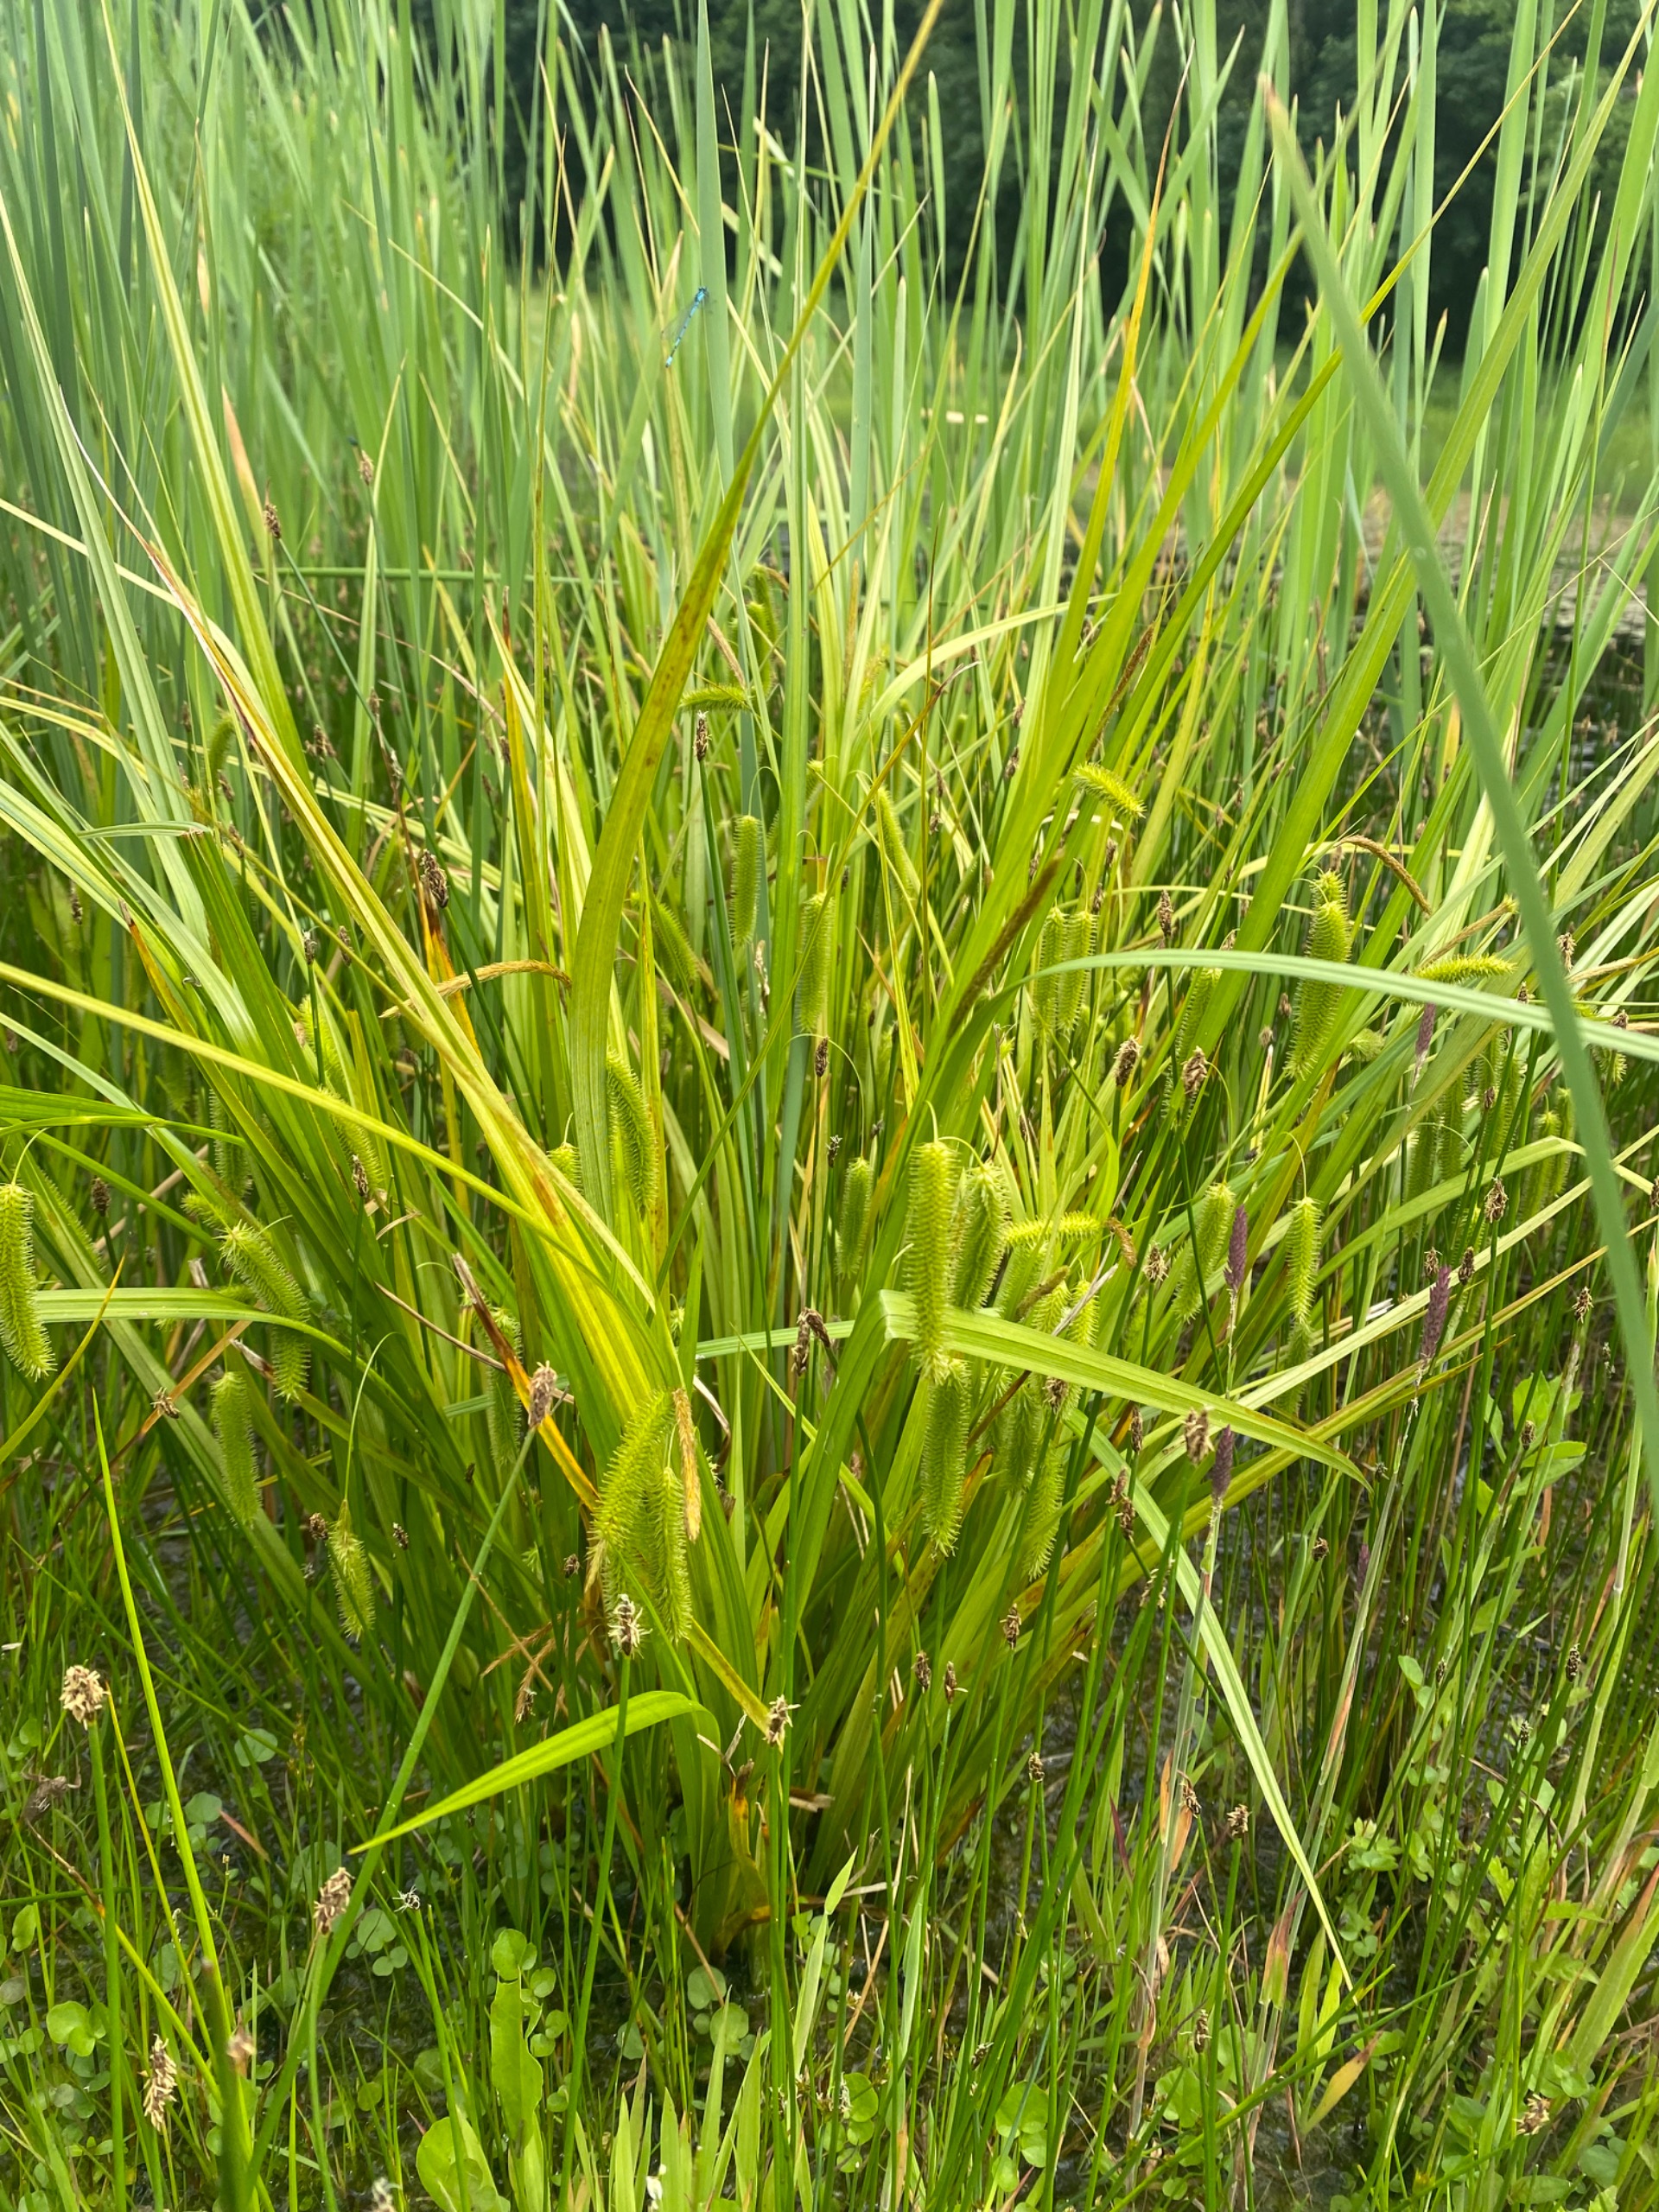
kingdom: Plantae
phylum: Tracheophyta
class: Liliopsida
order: Poales
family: Cyperaceae
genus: Carex
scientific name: Carex pseudocyperus
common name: Knippe-star
